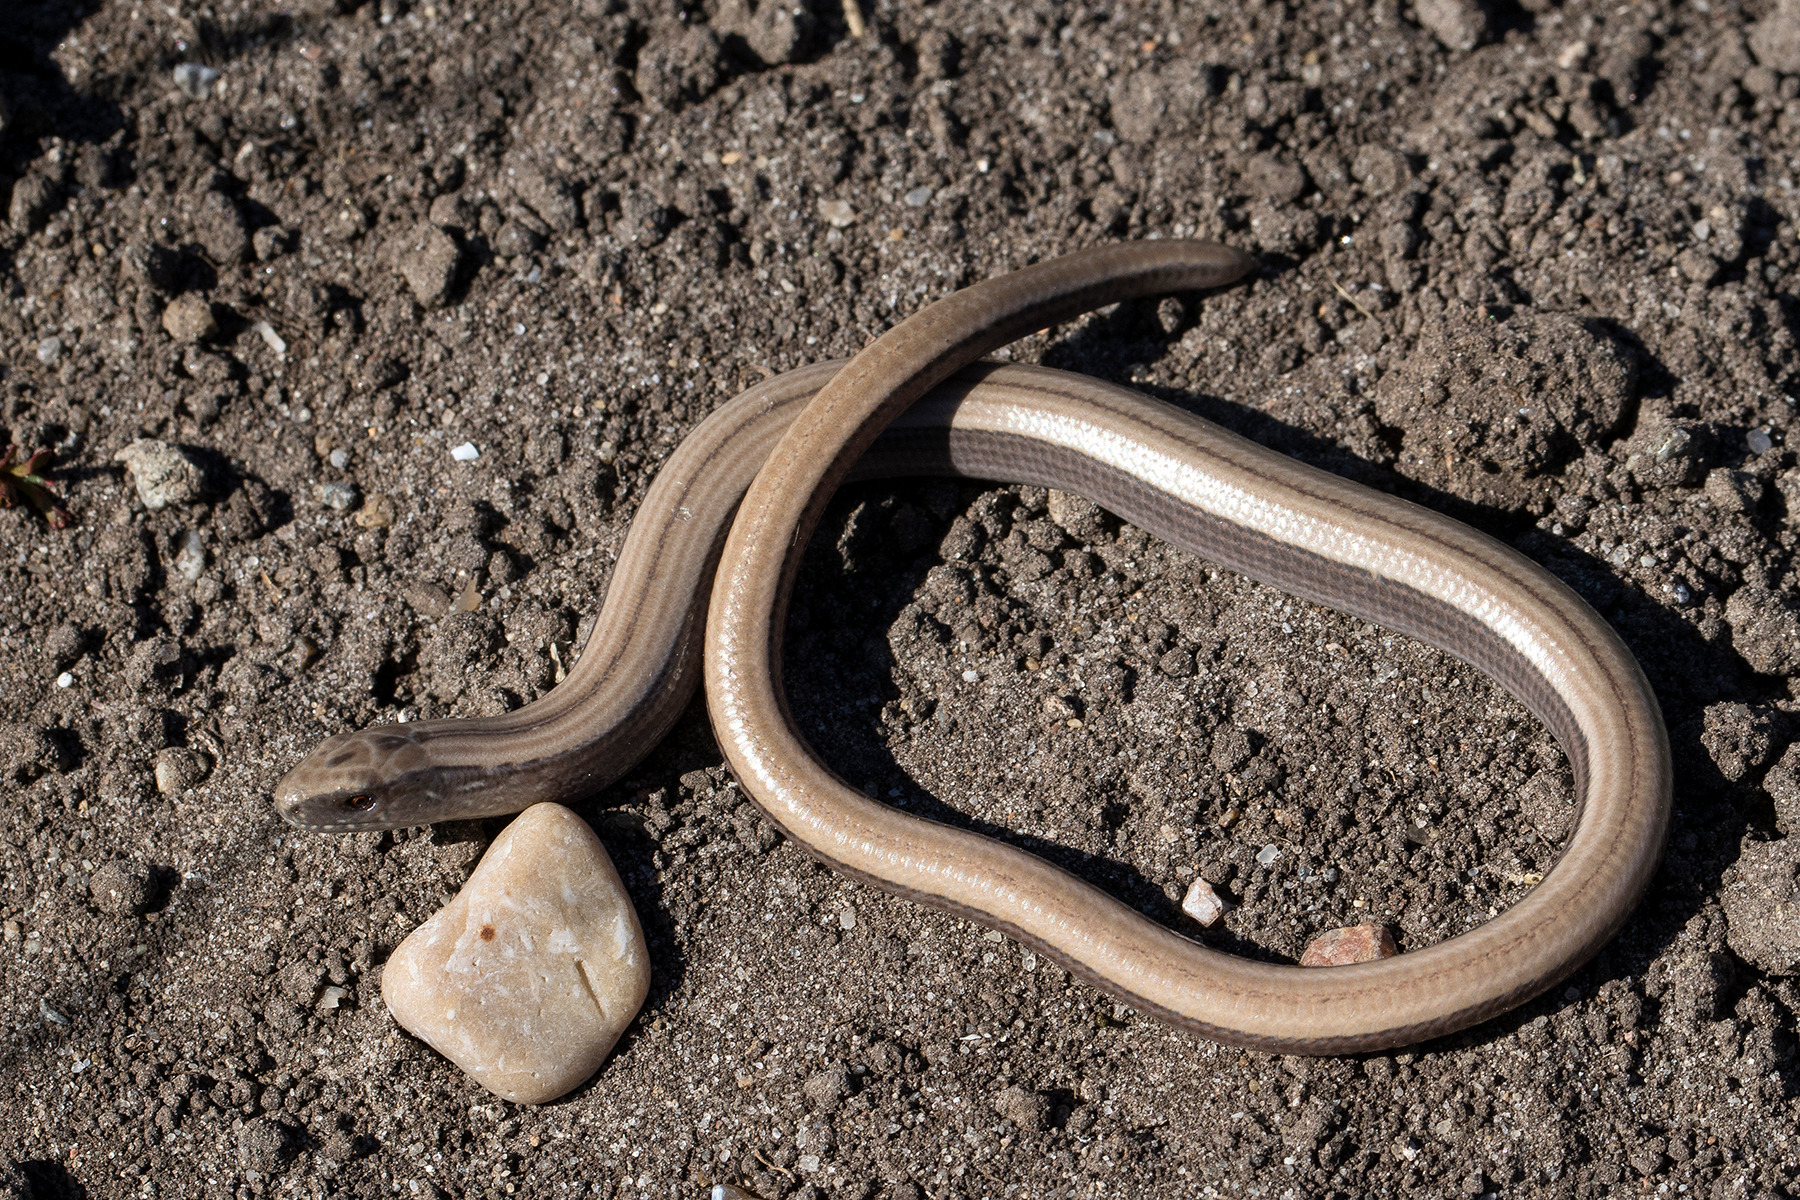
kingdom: Animalia
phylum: Chordata
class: Squamata
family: Anguidae
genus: Anguis
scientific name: Anguis fragilis
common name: Stålorm
